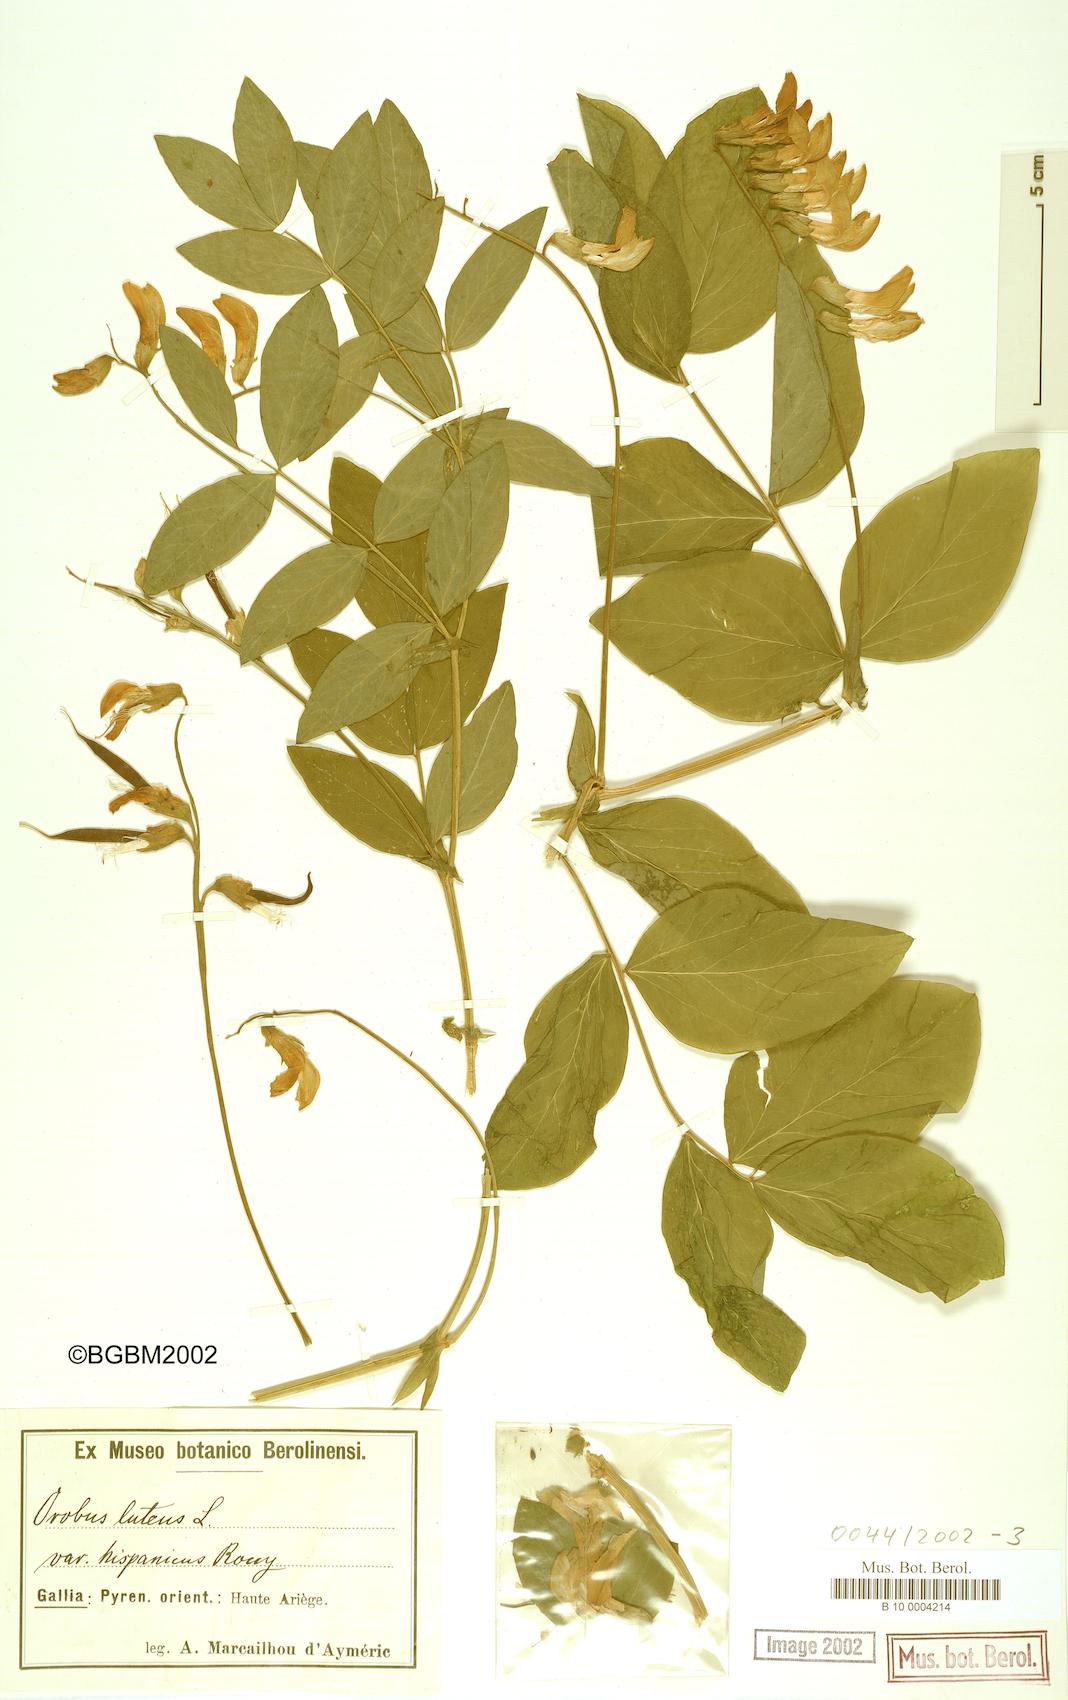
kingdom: Plantae
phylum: Tracheophyta
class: Magnoliopsida
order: Fabales
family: Fabaceae
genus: Lathyrus
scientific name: Lathyrus gmelinii
